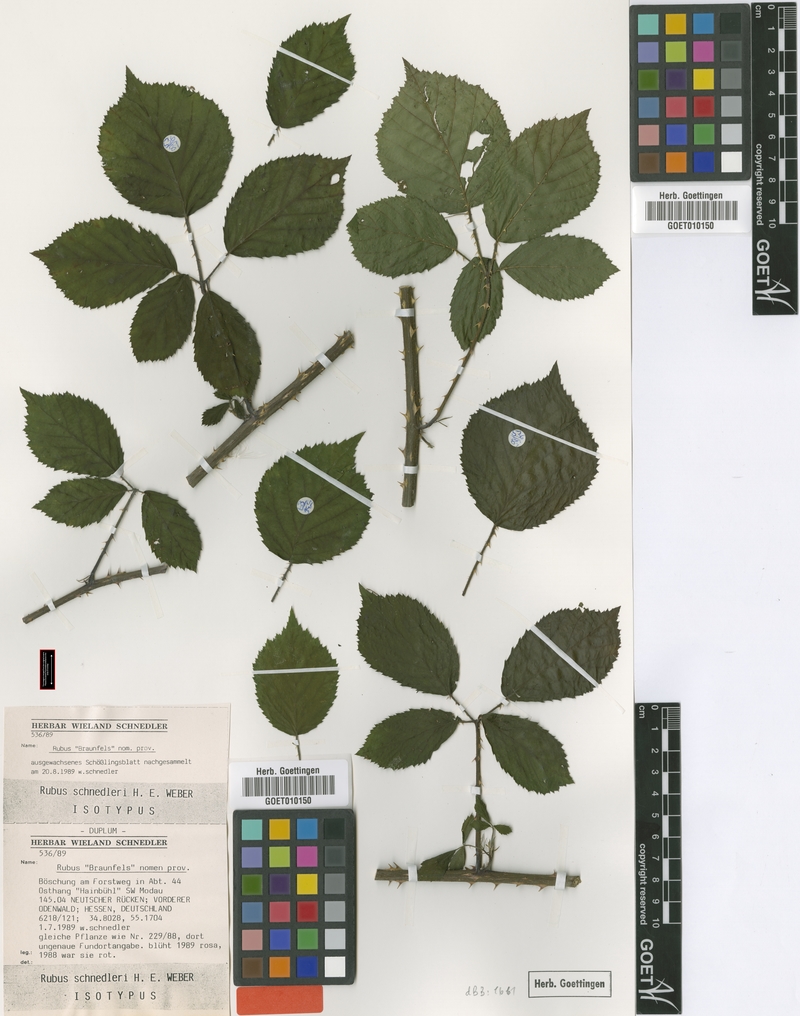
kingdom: Plantae
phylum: Tracheophyta
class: Magnoliopsida
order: Rosales
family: Rosaceae
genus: Rubus
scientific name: Rubus atrovirens
